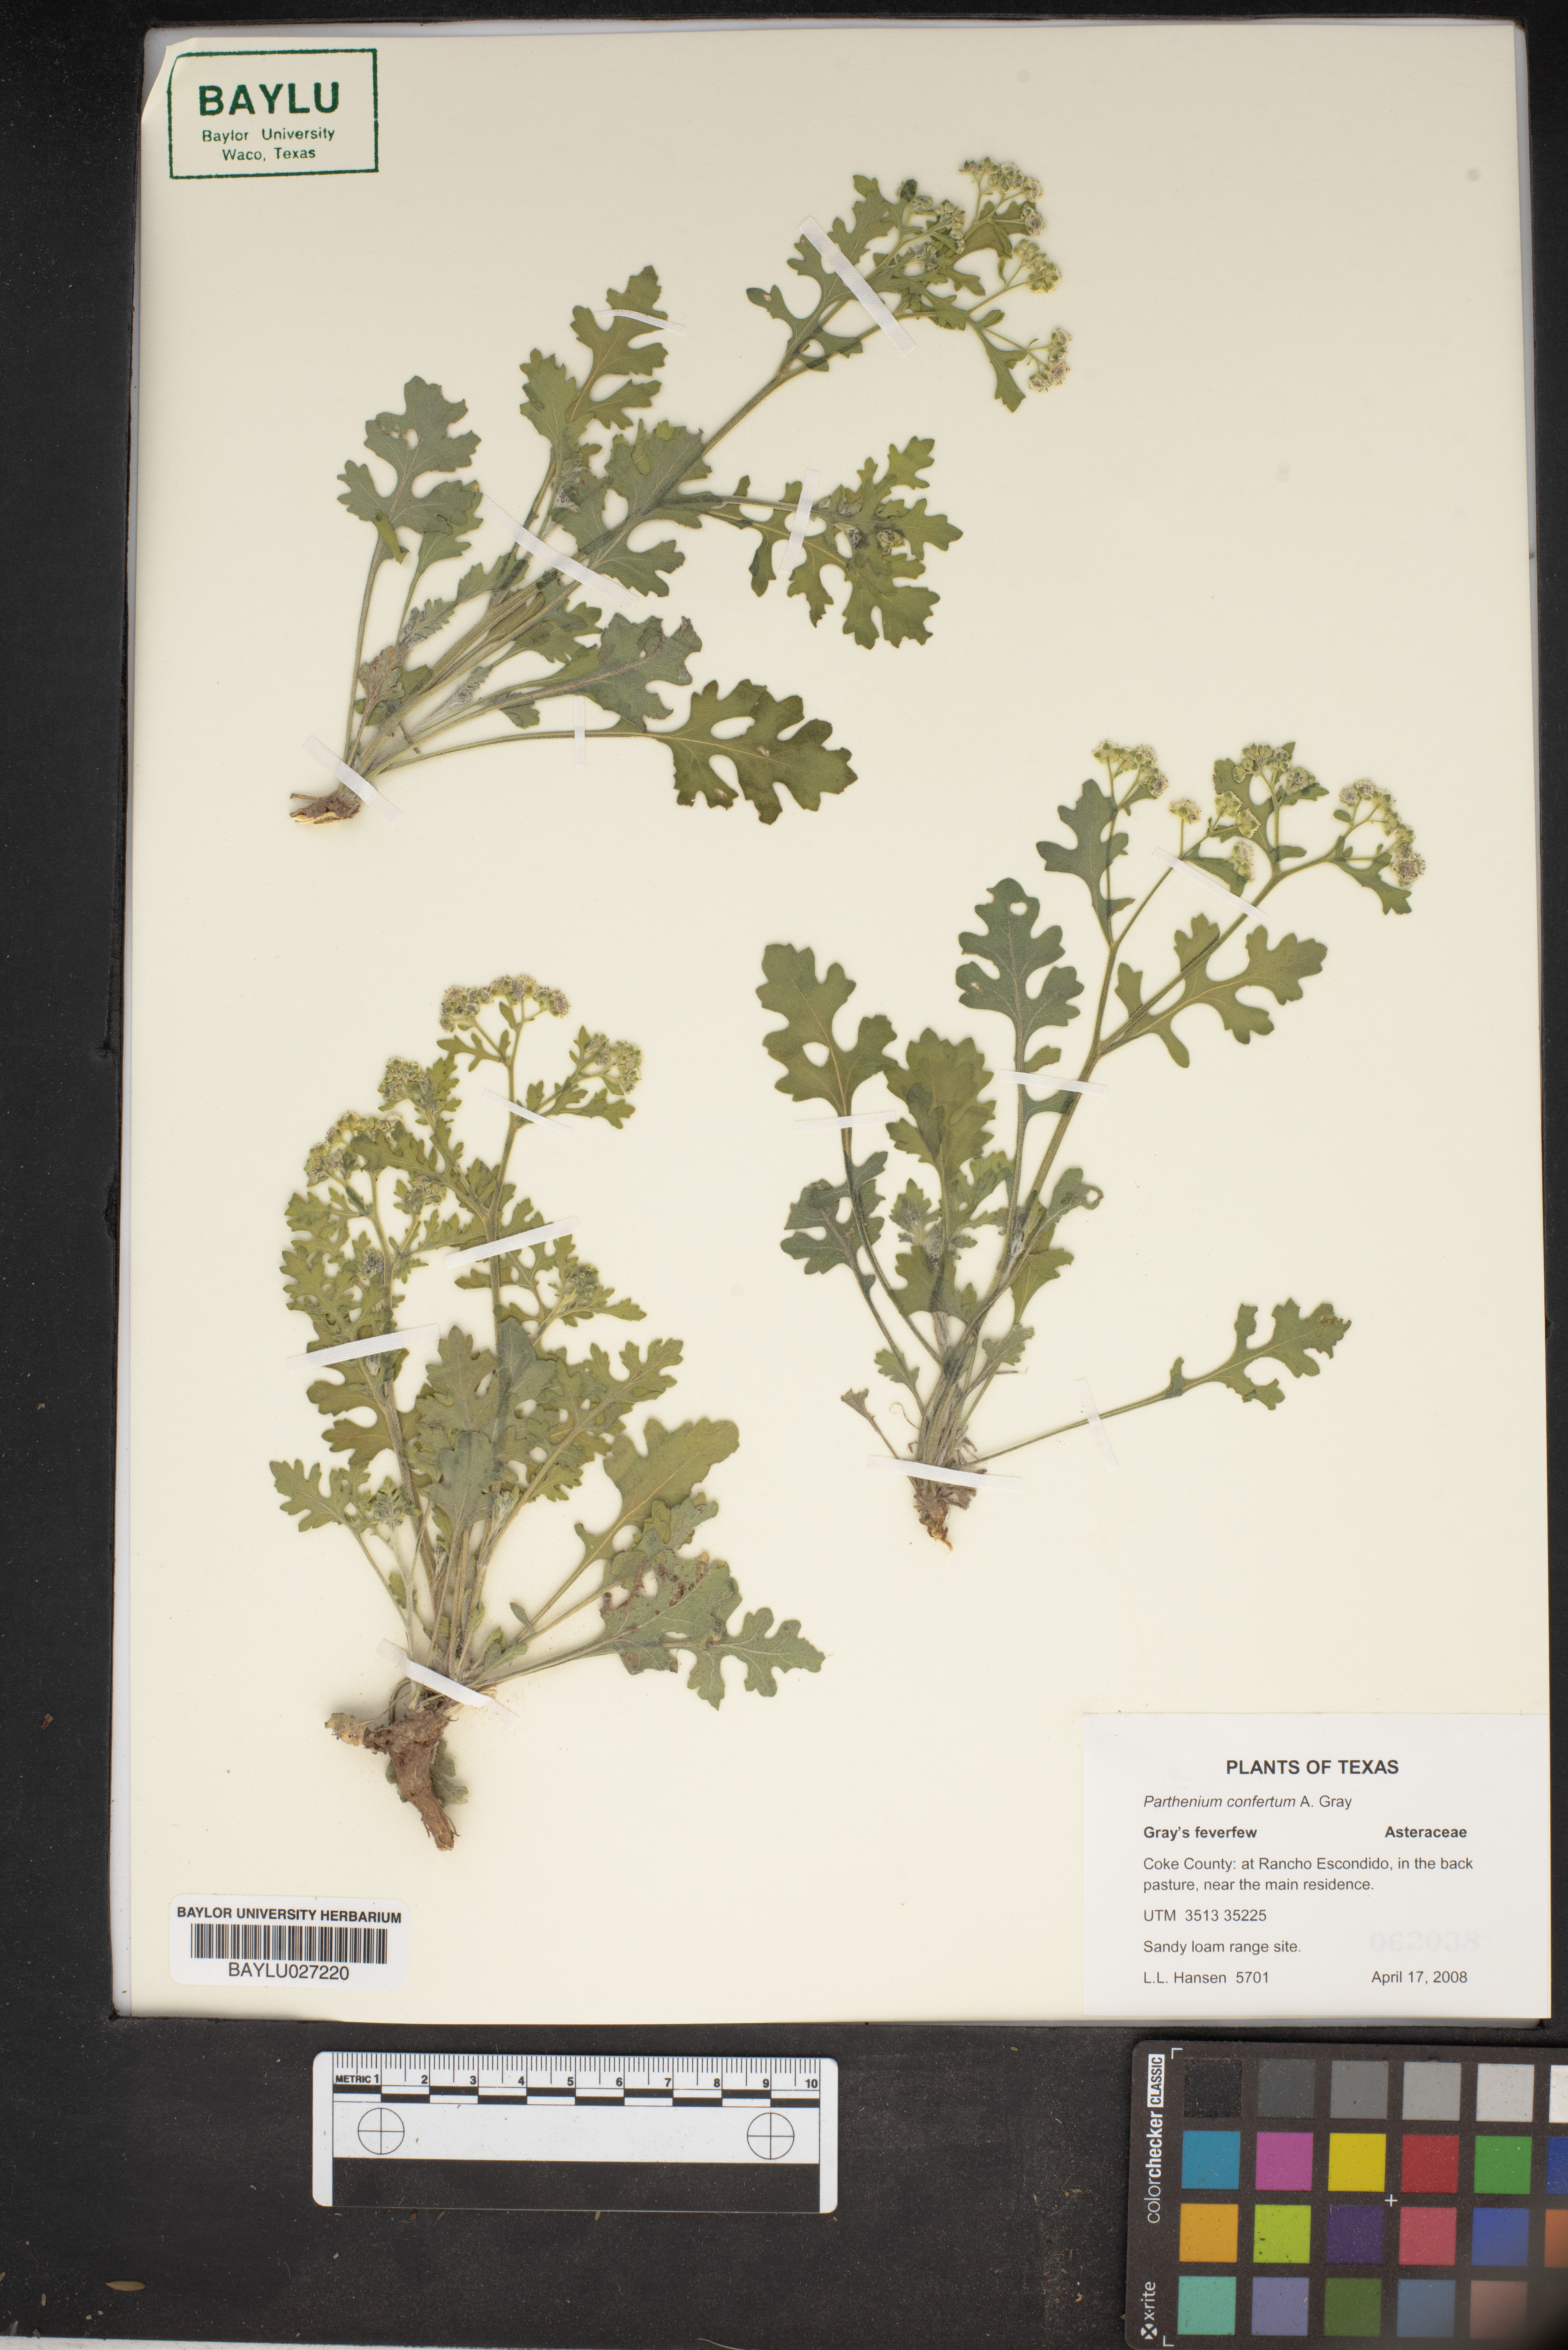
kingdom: Plantae
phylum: Tracheophyta
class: Magnoliopsida
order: Asterales
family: Asteraceae
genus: Parthenium
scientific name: Parthenium confertum
